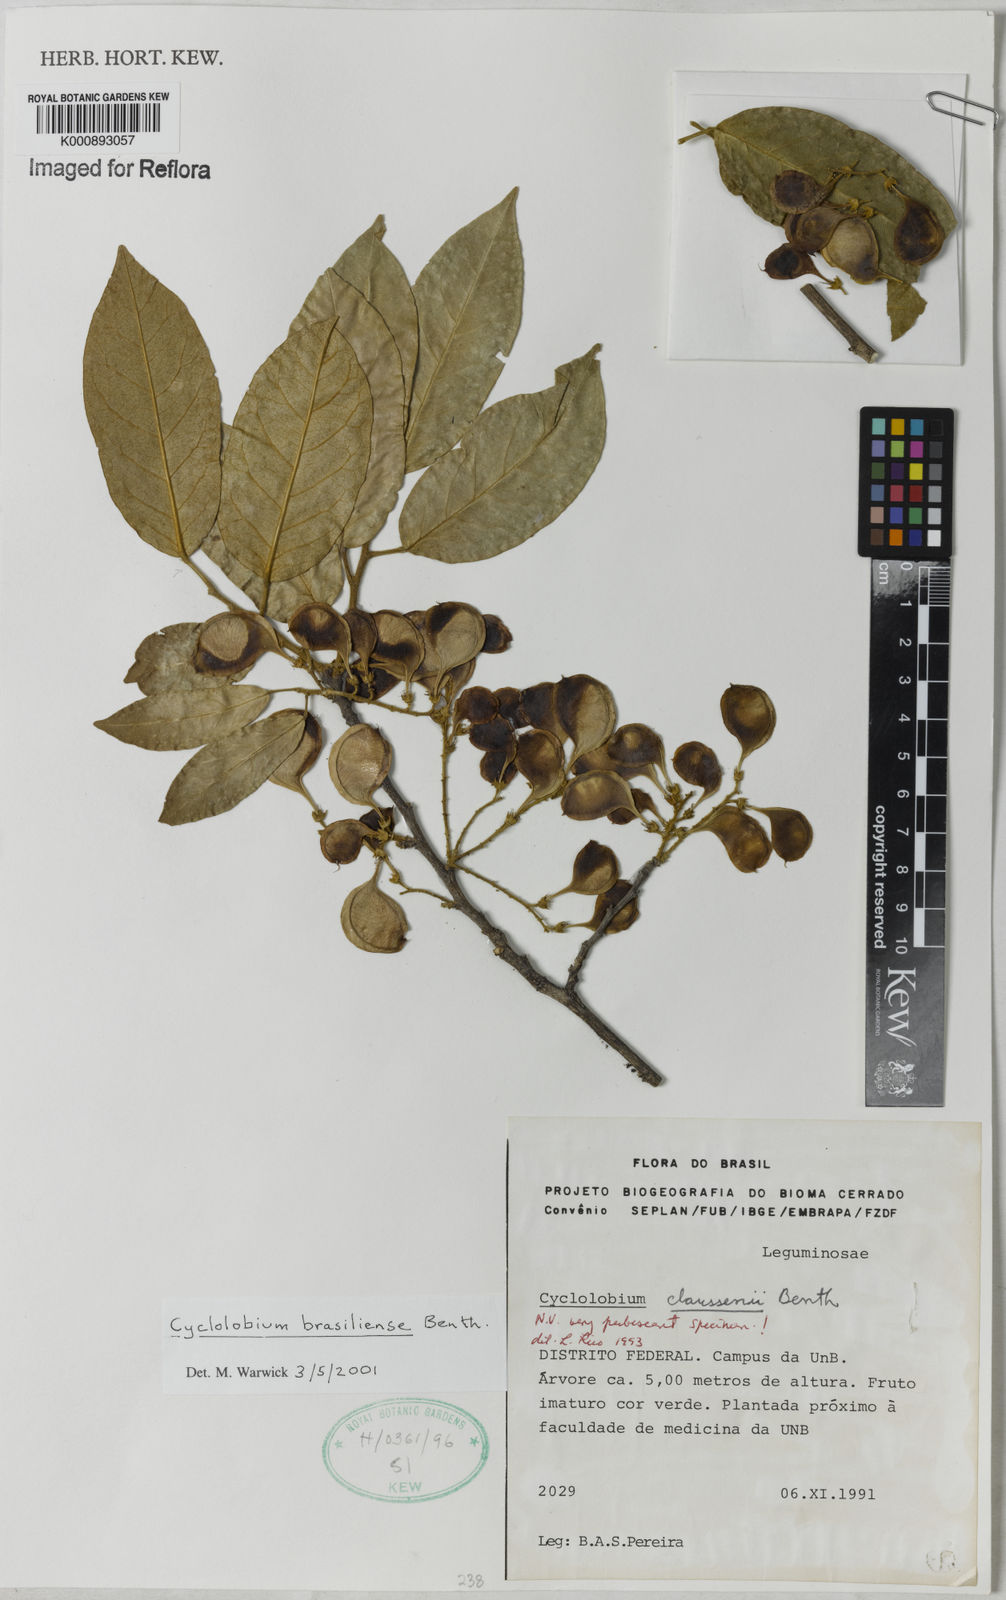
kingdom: Plantae
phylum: Tracheophyta
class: Magnoliopsida
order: Fabales
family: Fabaceae
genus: Cyclolobium
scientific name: Cyclolobium brasiliense
